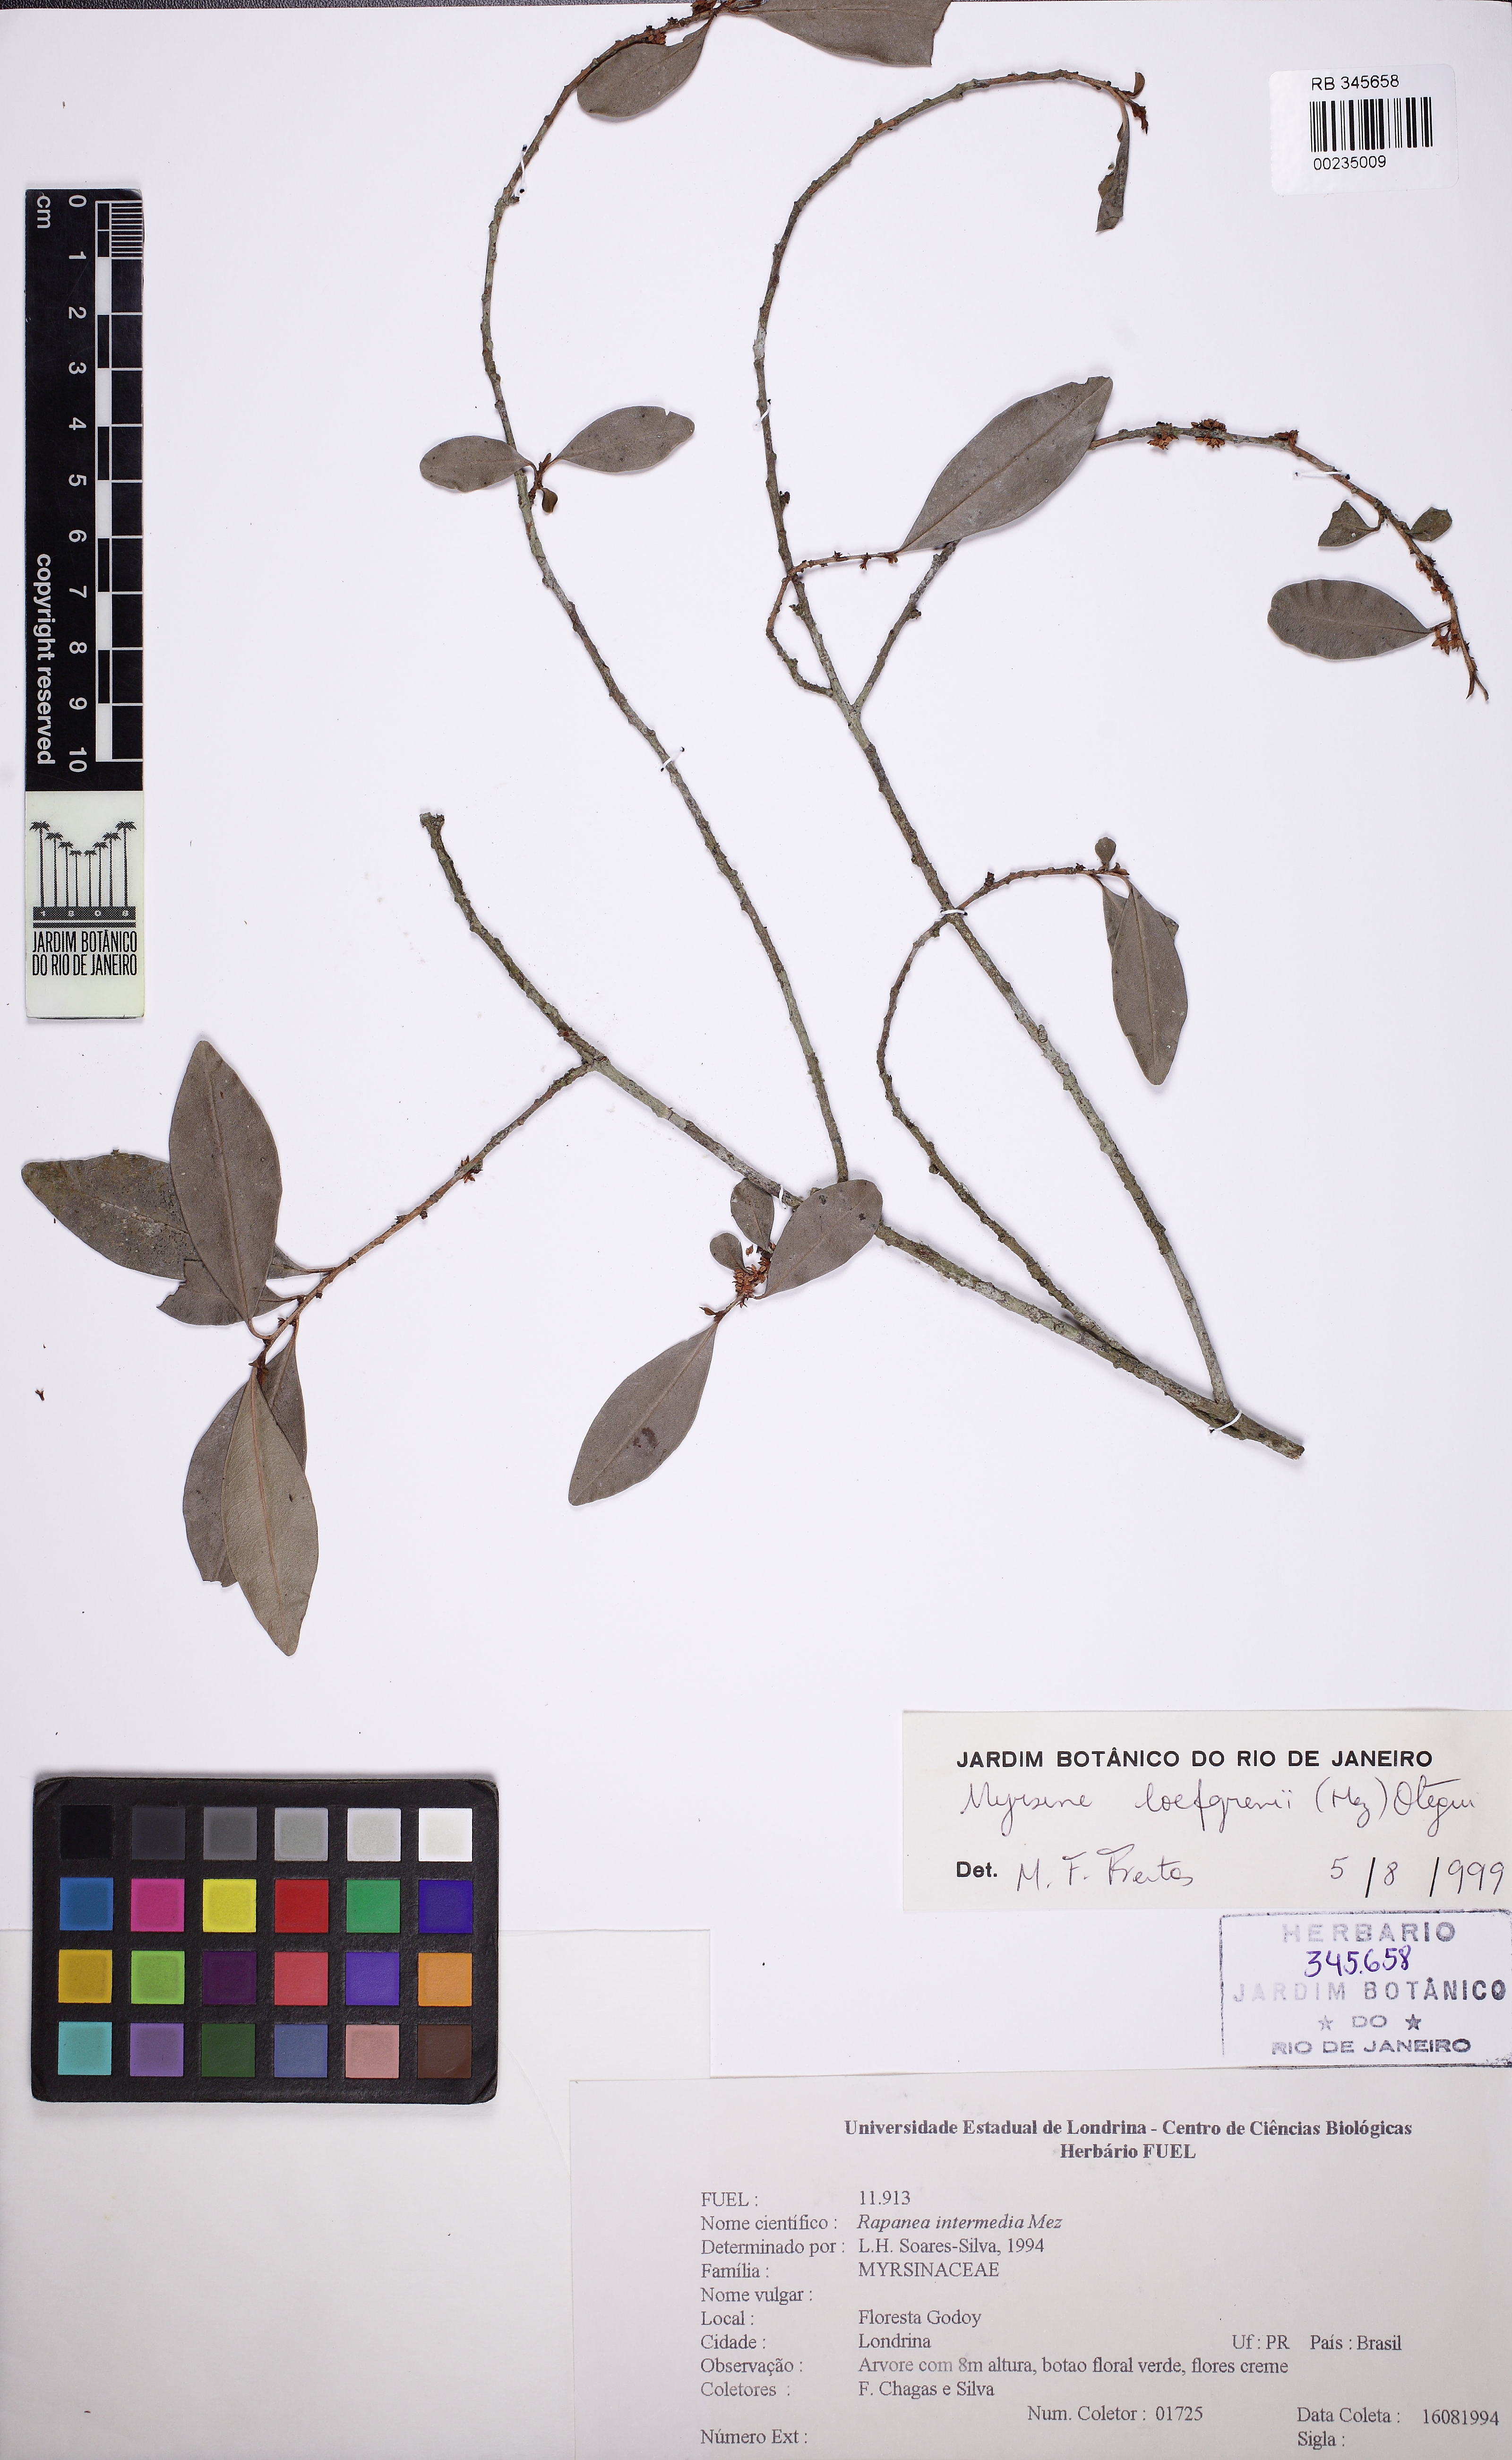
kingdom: Plantae
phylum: Tracheophyta
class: Magnoliopsida
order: Ericales
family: Primulaceae
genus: Myrsine
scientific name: Myrsine
